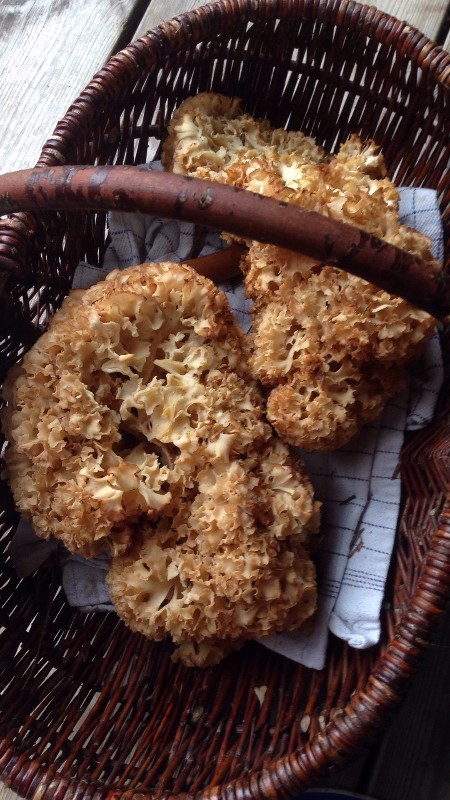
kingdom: Fungi
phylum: Basidiomycota
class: Agaricomycetes
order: Polyporales
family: Sparassidaceae
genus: Sparassis
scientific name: Sparassis crispa
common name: kruset blomkålssvamp
